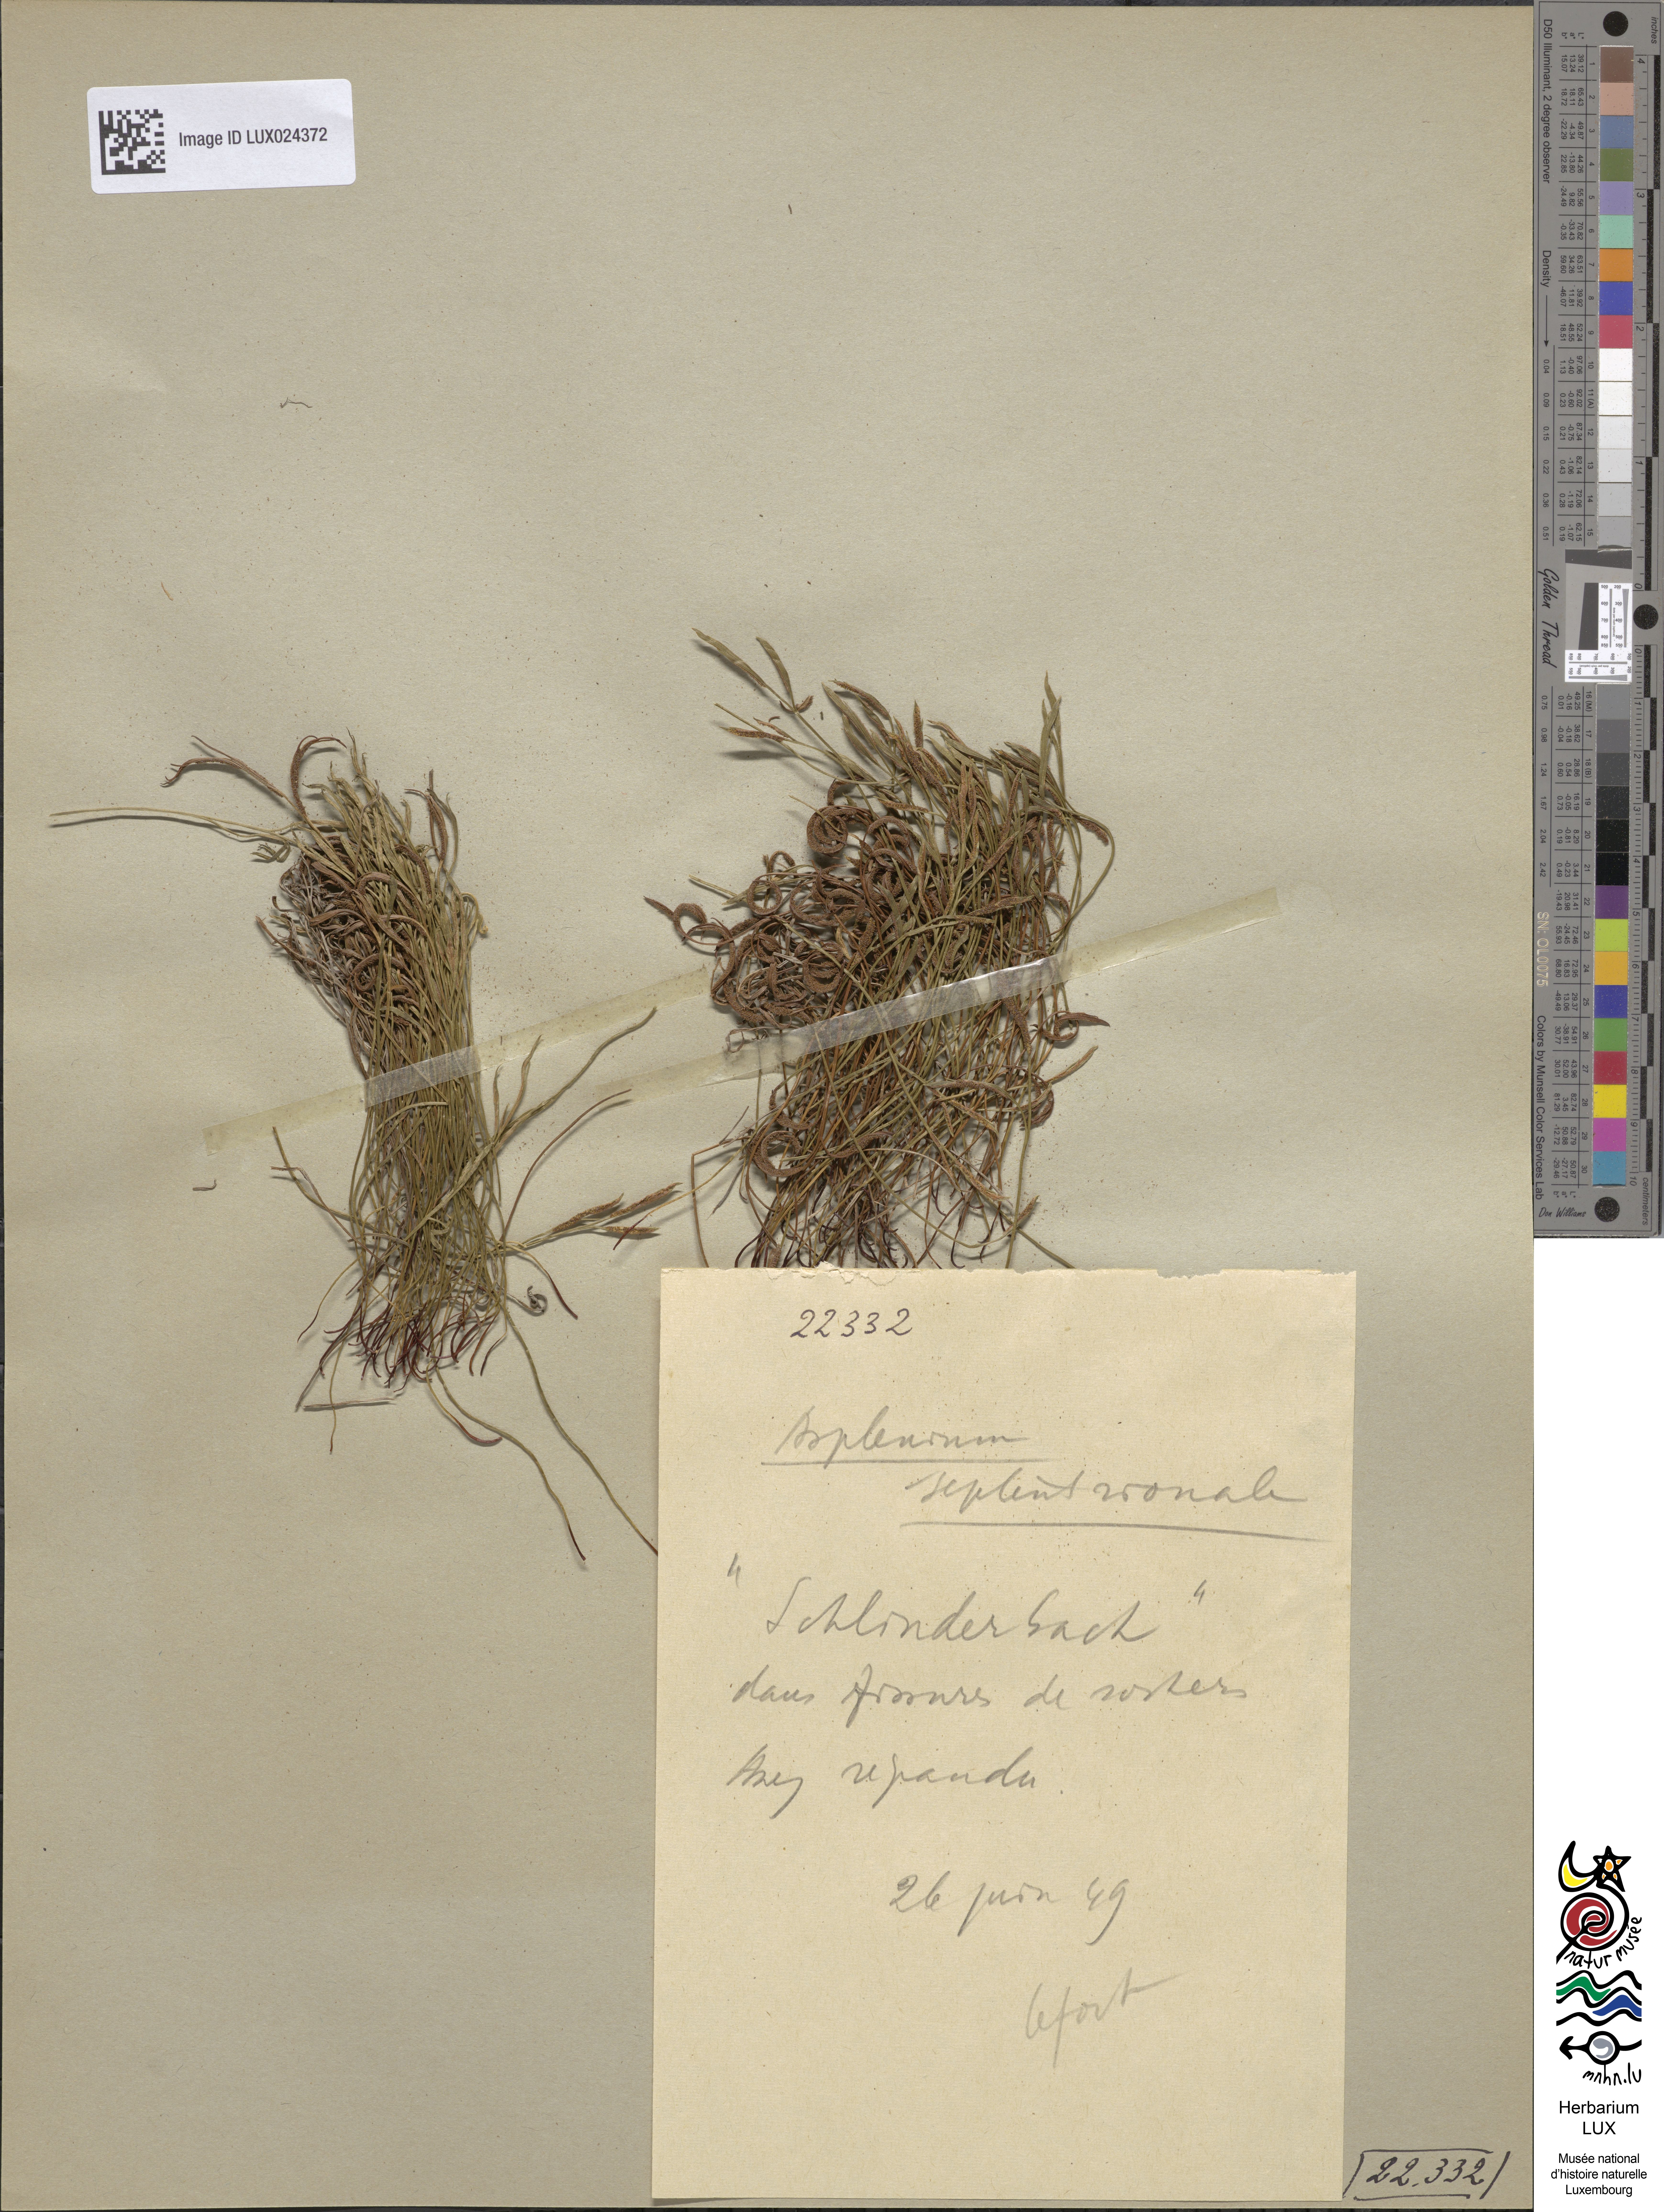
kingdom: Plantae
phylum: Tracheophyta
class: Polypodiopsida
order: Polypodiales
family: Aspleniaceae
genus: Asplenium
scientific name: Asplenium septentrionale
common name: Forked spleenwort
